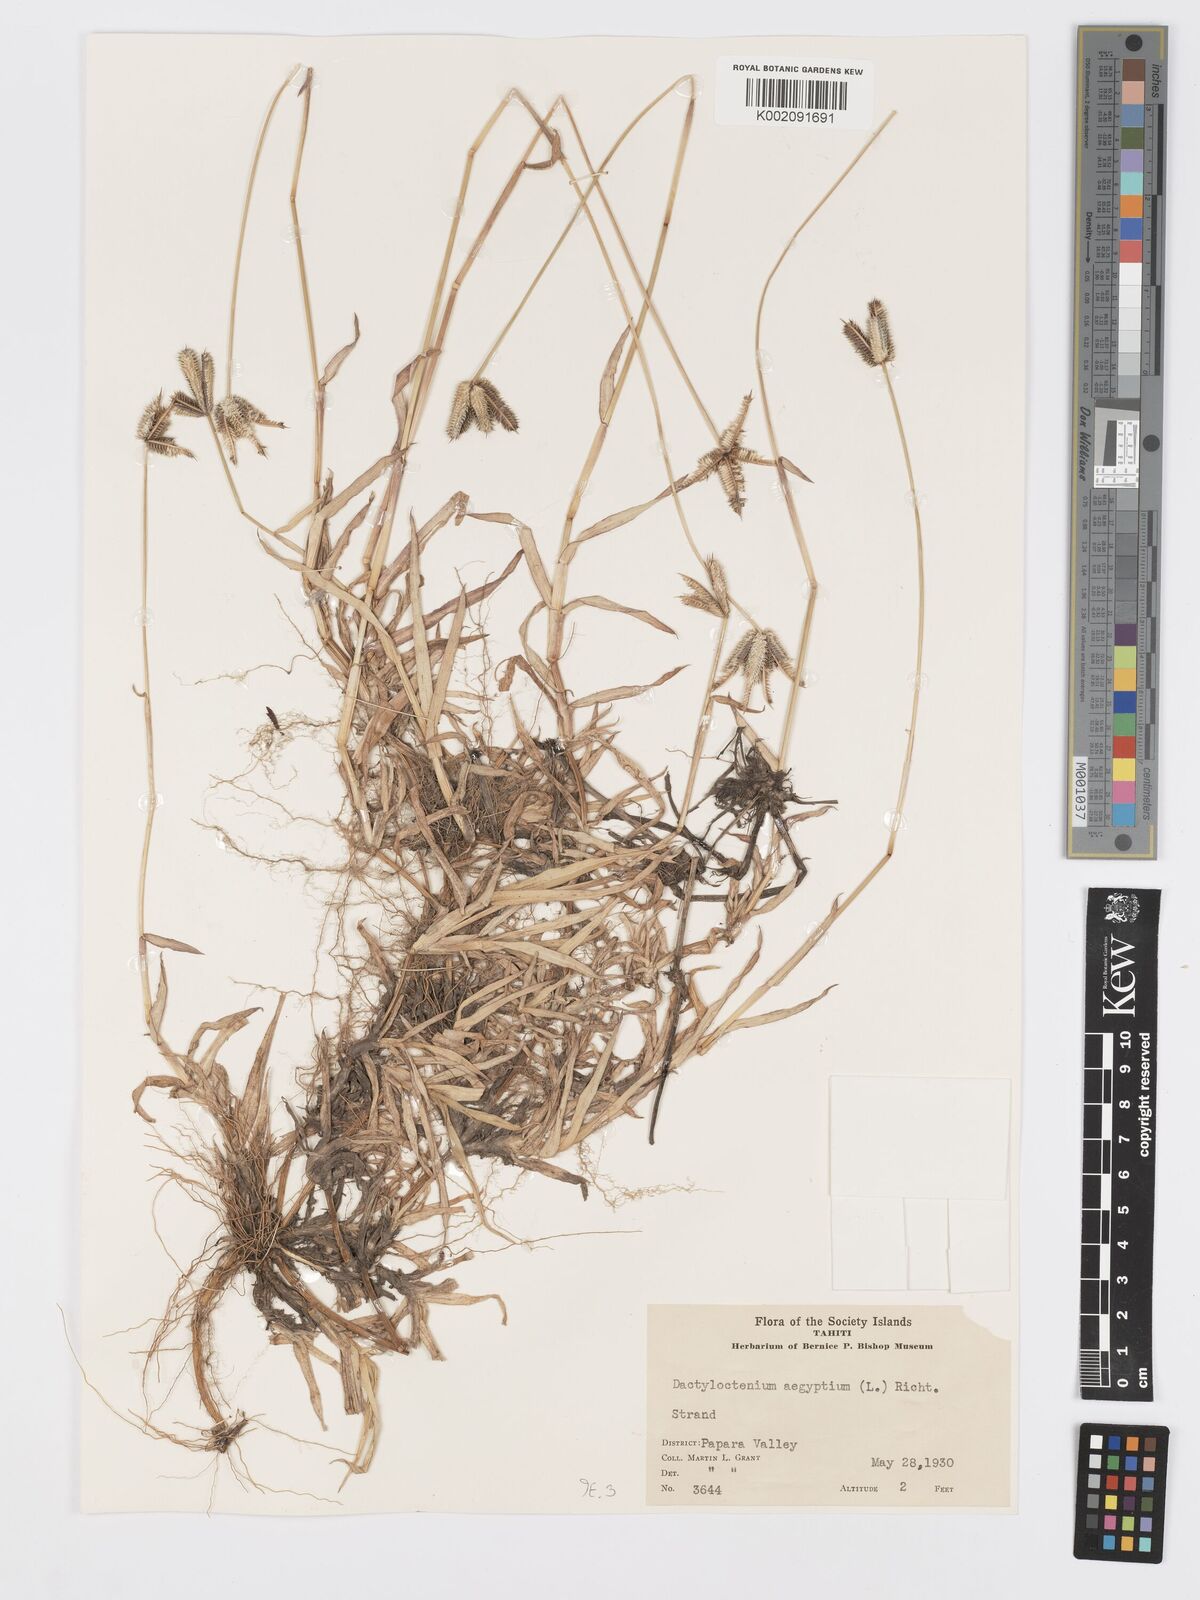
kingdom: Plantae
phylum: Tracheophyta
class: Liliopsida
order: Poales
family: Poaceae
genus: Dactyloctenium
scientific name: Dactyloctenium aegyptium
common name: Egyptian grass
